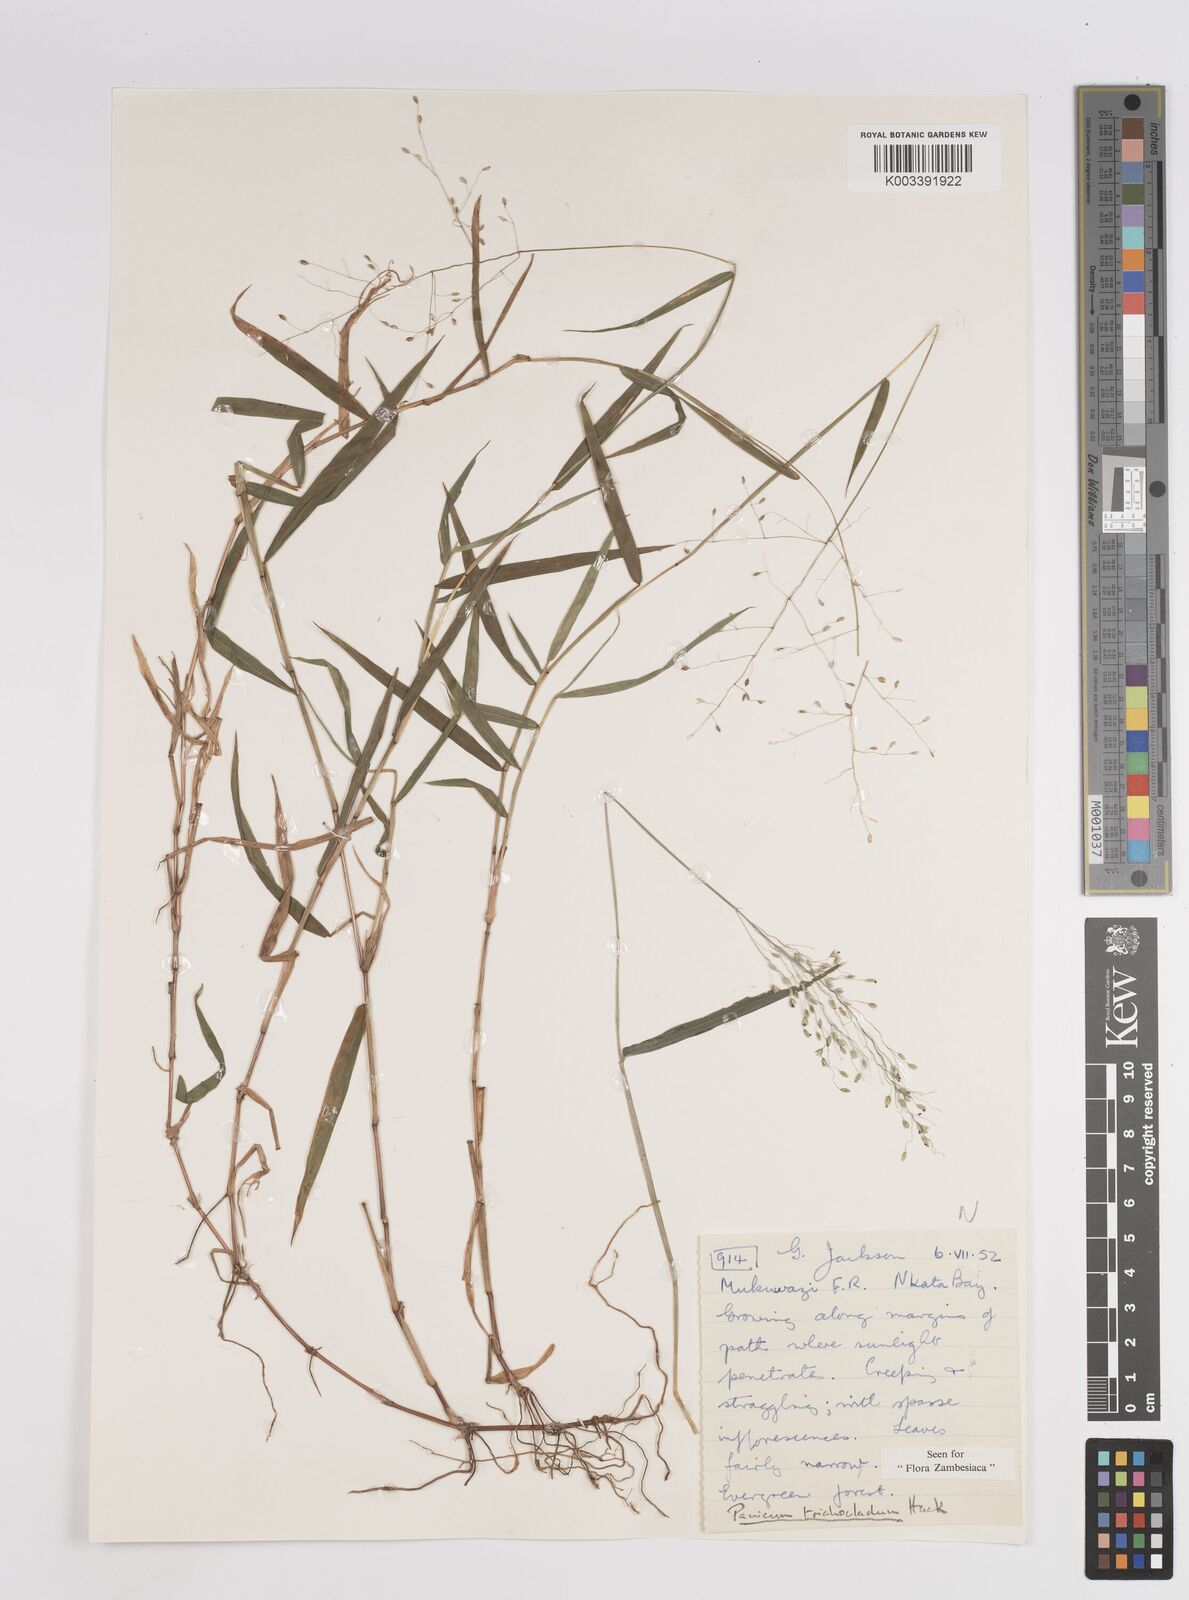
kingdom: Plantae
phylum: Tracheophyta
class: Liliopsida
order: Poales
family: Poaceae
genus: Panicum
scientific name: Panicum trichocladum
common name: Donkey grass
